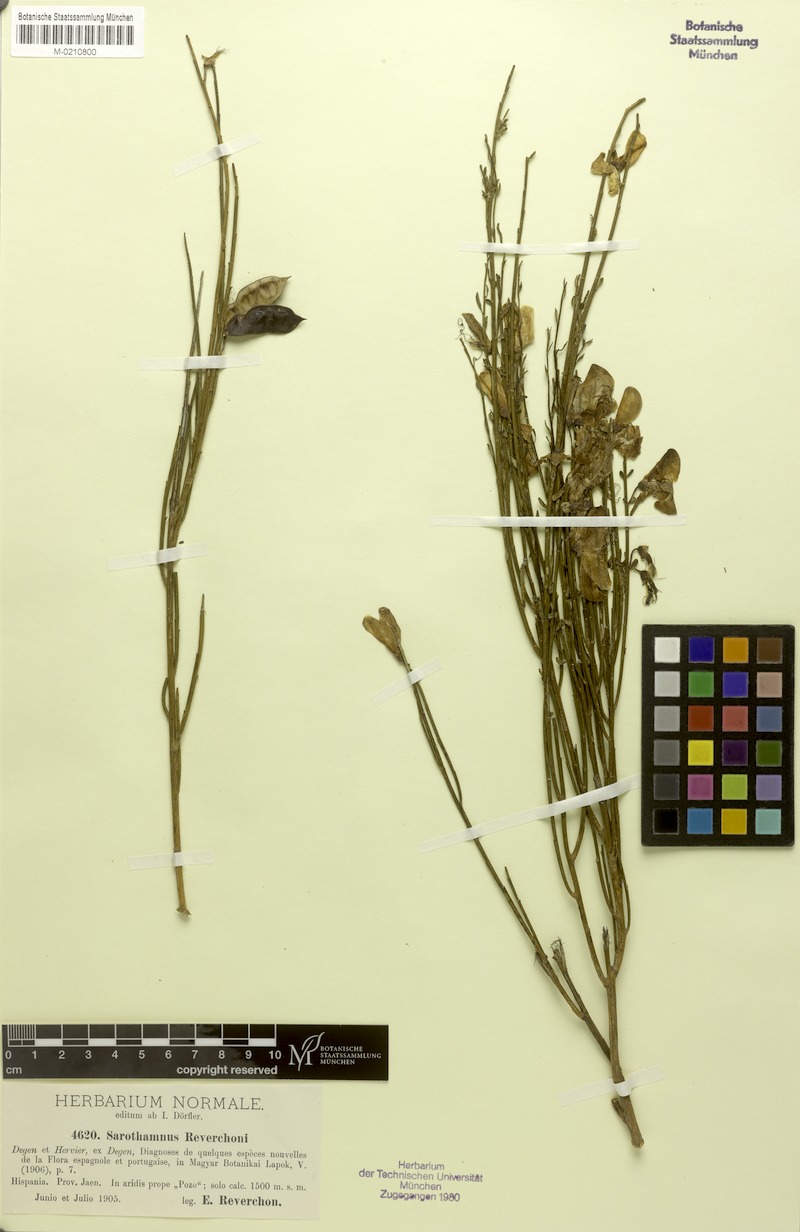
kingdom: Plantae
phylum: Tracheophyta
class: Magnoliopsida
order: Fabales
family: Fabaceae
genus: Cytisus
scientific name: Cytisus scoparius
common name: Scotch broom
